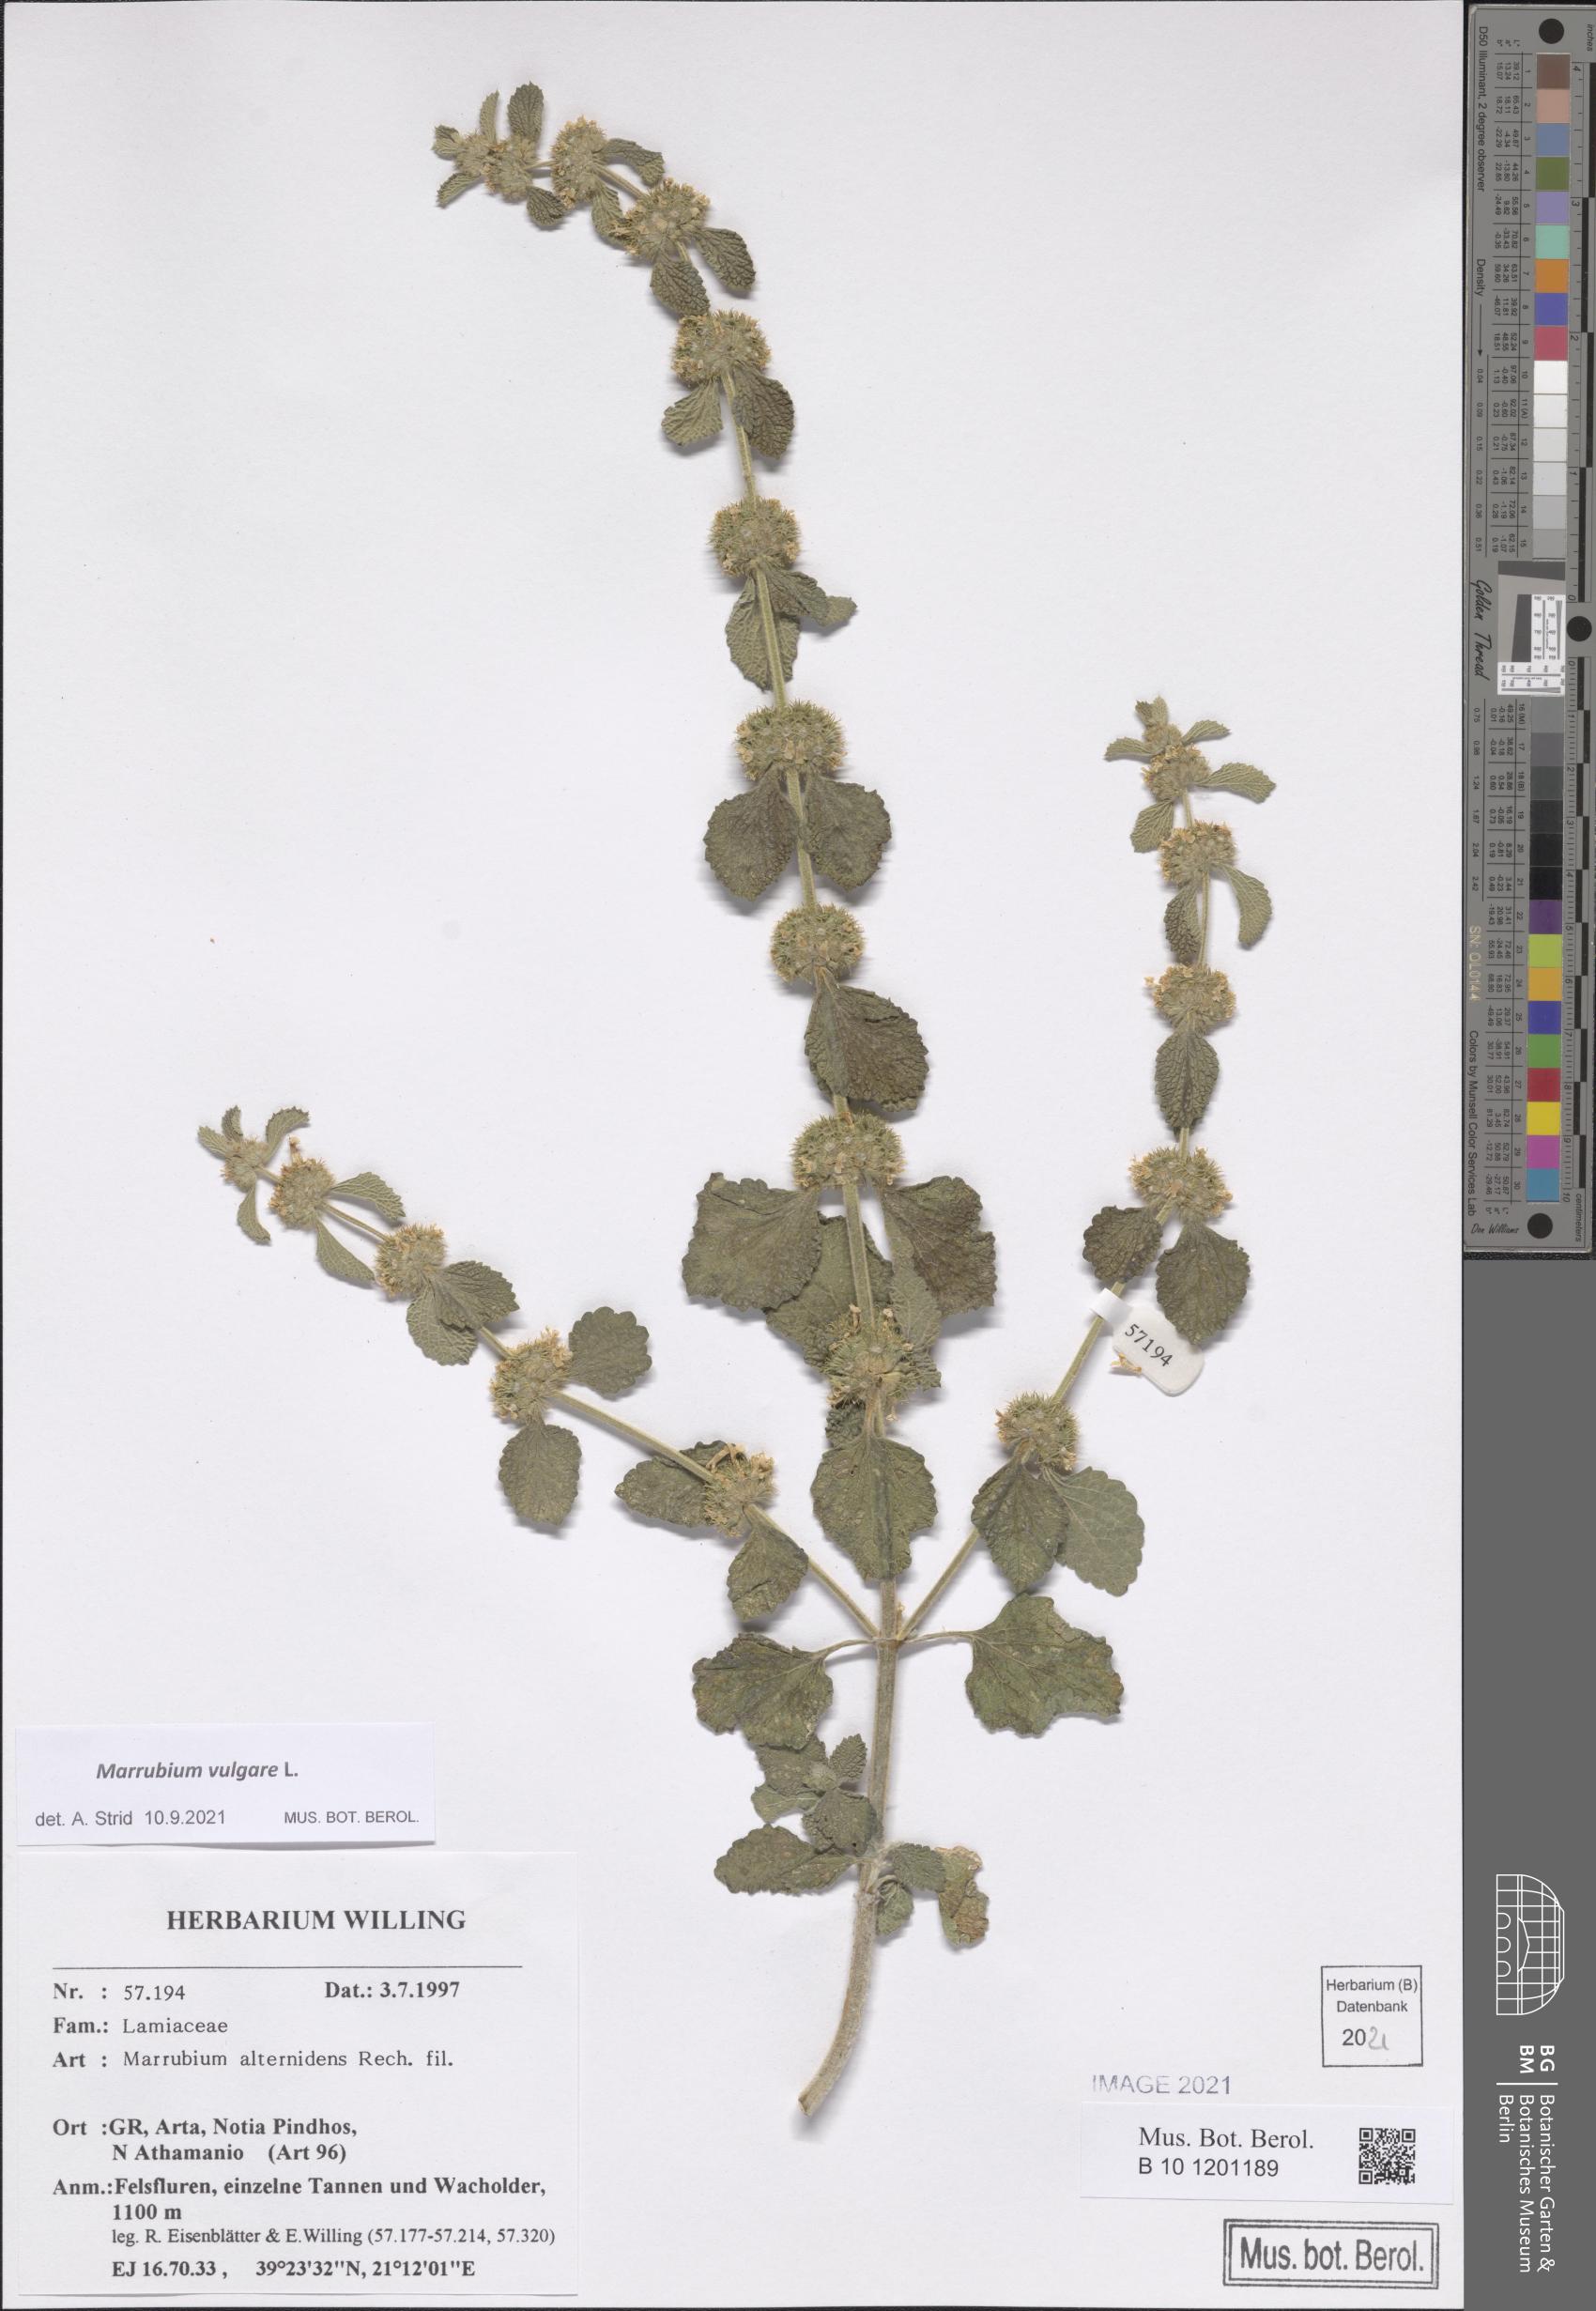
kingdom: Plantae
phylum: Tracheophyta
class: Magnoliopsida
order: Lamiales
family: Lamiaceae
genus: Marrubium
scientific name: Marrubium vulgare
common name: Horehound
